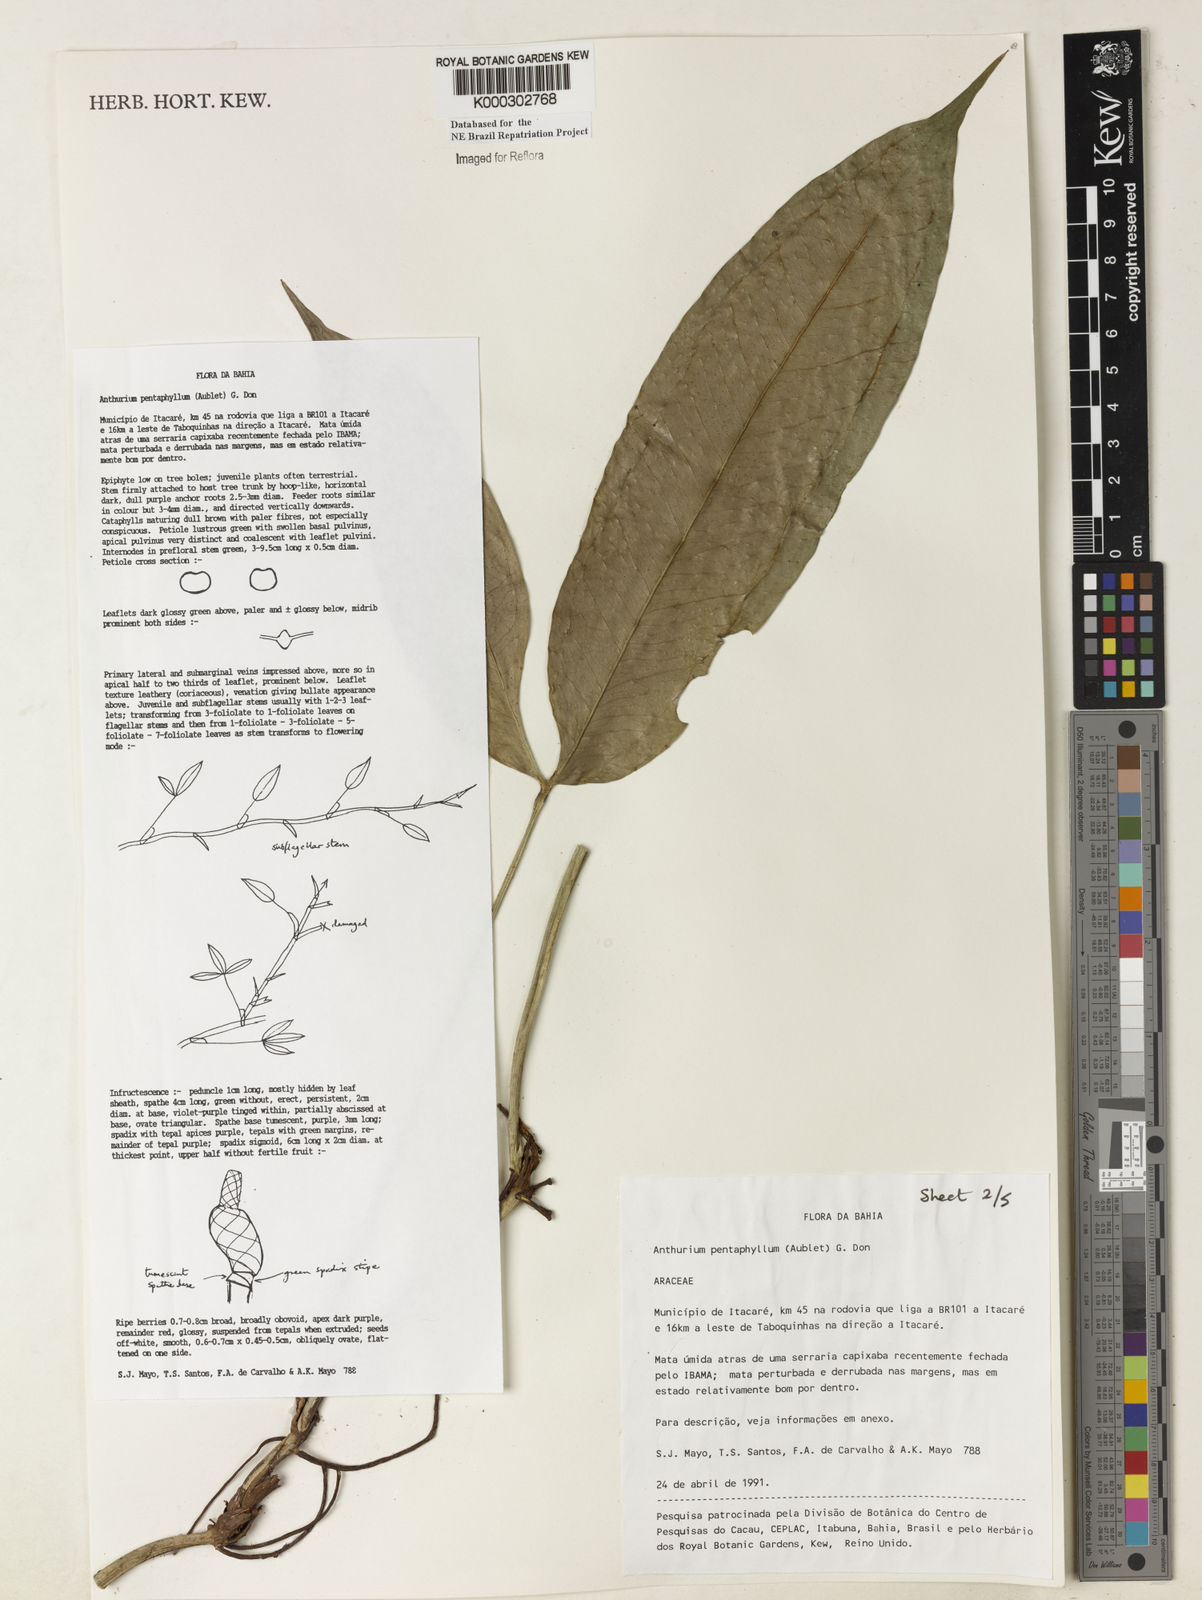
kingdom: Plantae
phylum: Tracheophyta
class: Liliopsida
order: Alismatales
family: Araceae
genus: Anthurium
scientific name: Anthurium pentaphyllum
